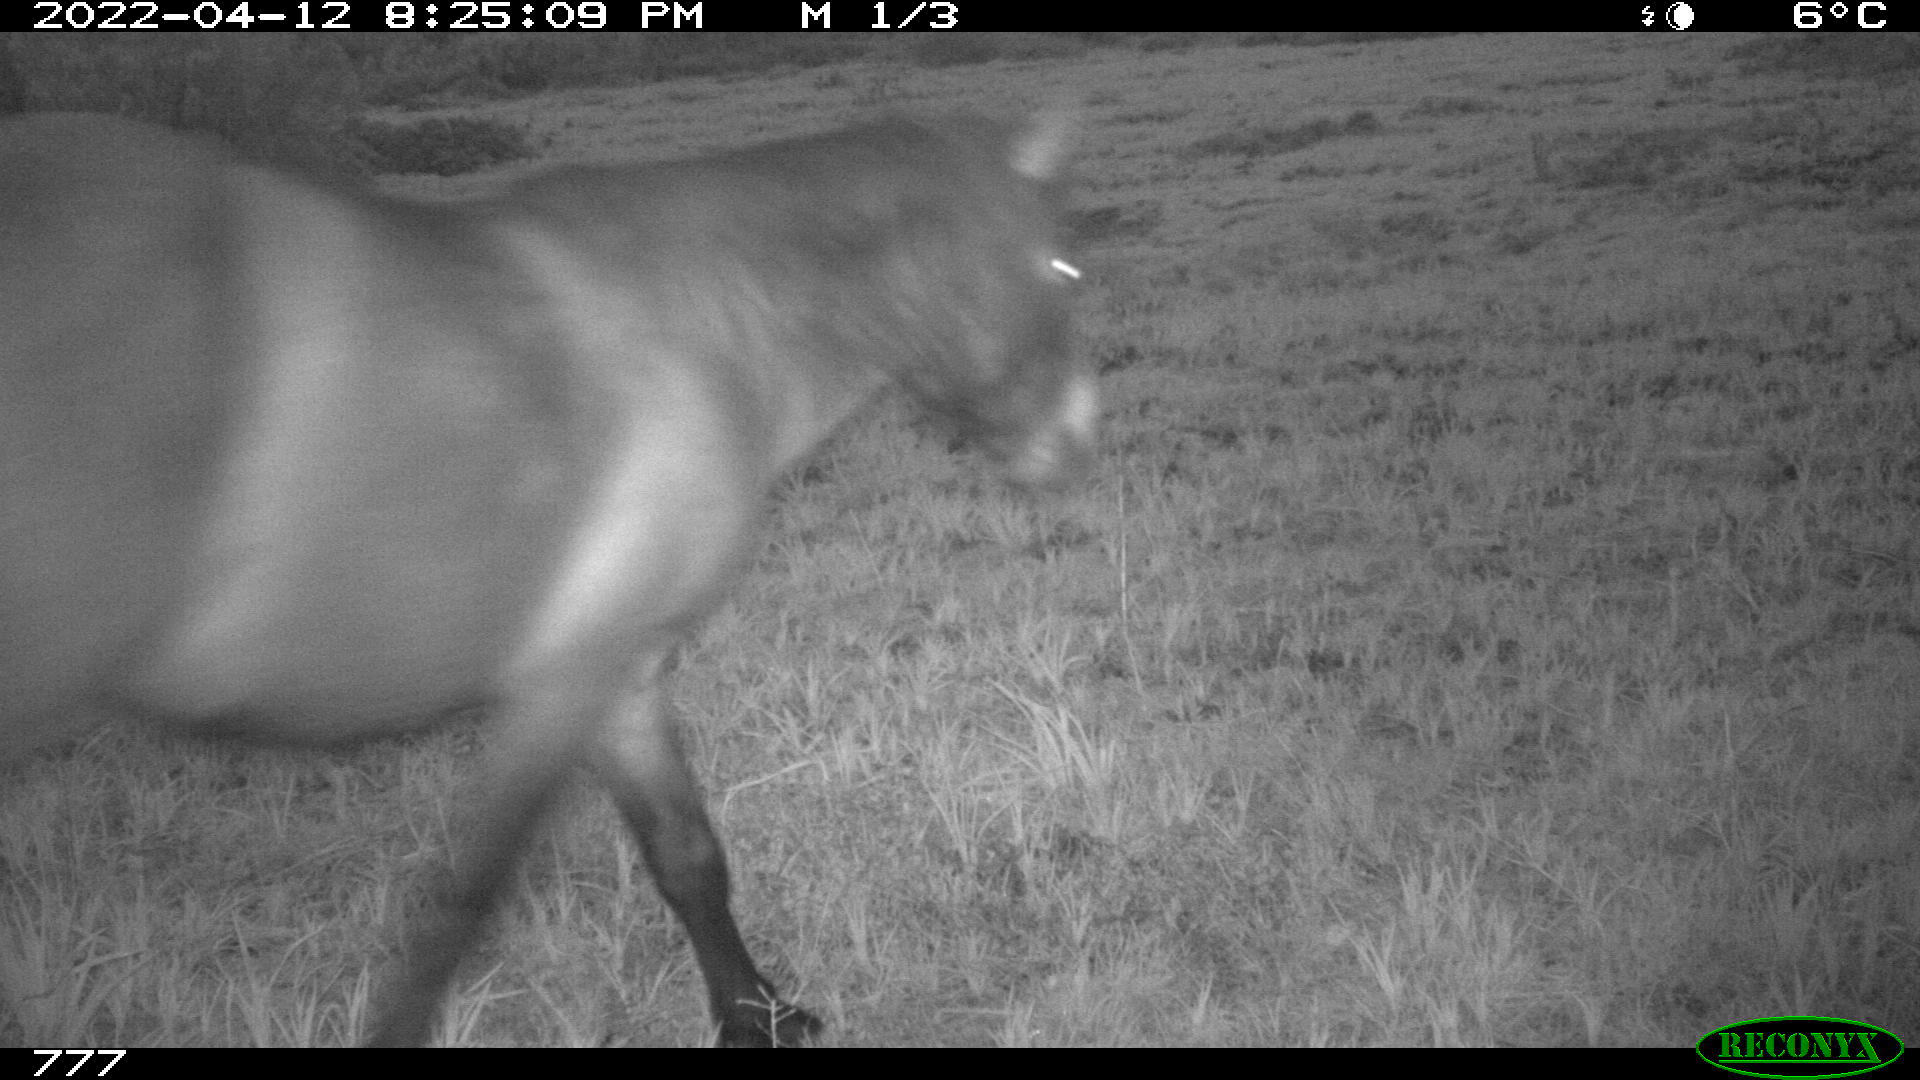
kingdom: Animalia
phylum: Chordata
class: Mammalia
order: Perissodactyla
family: Equidae
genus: Equus
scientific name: Equus caballus
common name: Horse
